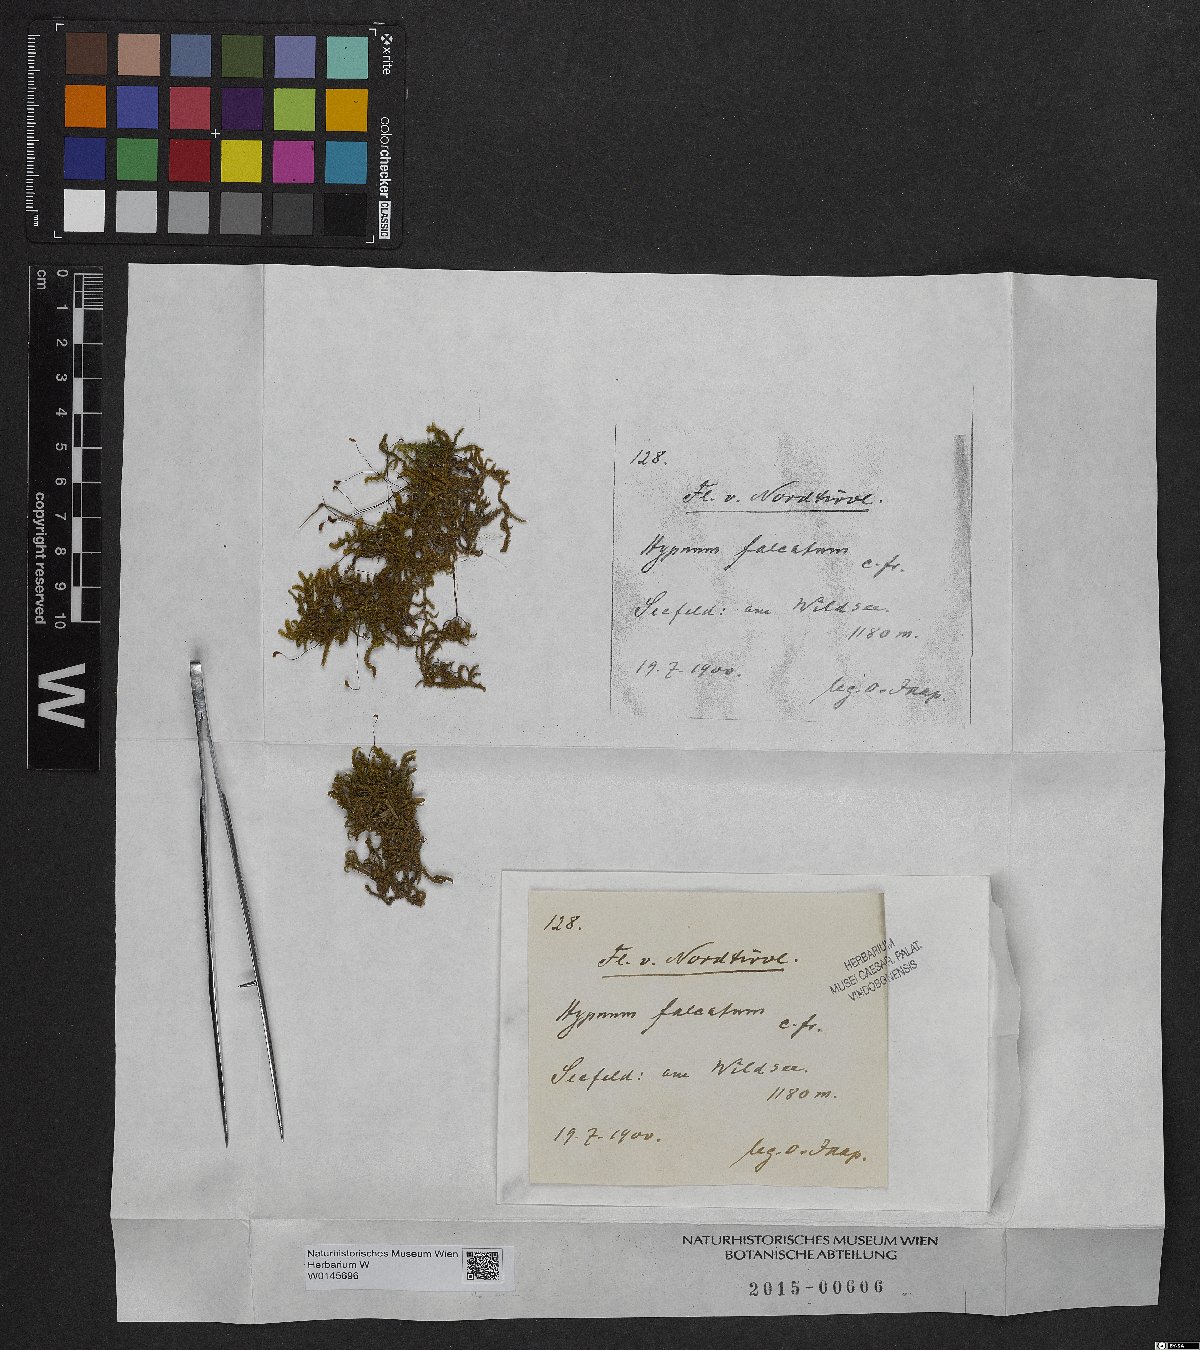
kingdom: Plantae
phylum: Bryophyta
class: Bryopsida
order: Hypnales
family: Amblystegiaceae
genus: Palustriella
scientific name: Palustriella falcata
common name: Curled hook-moss
